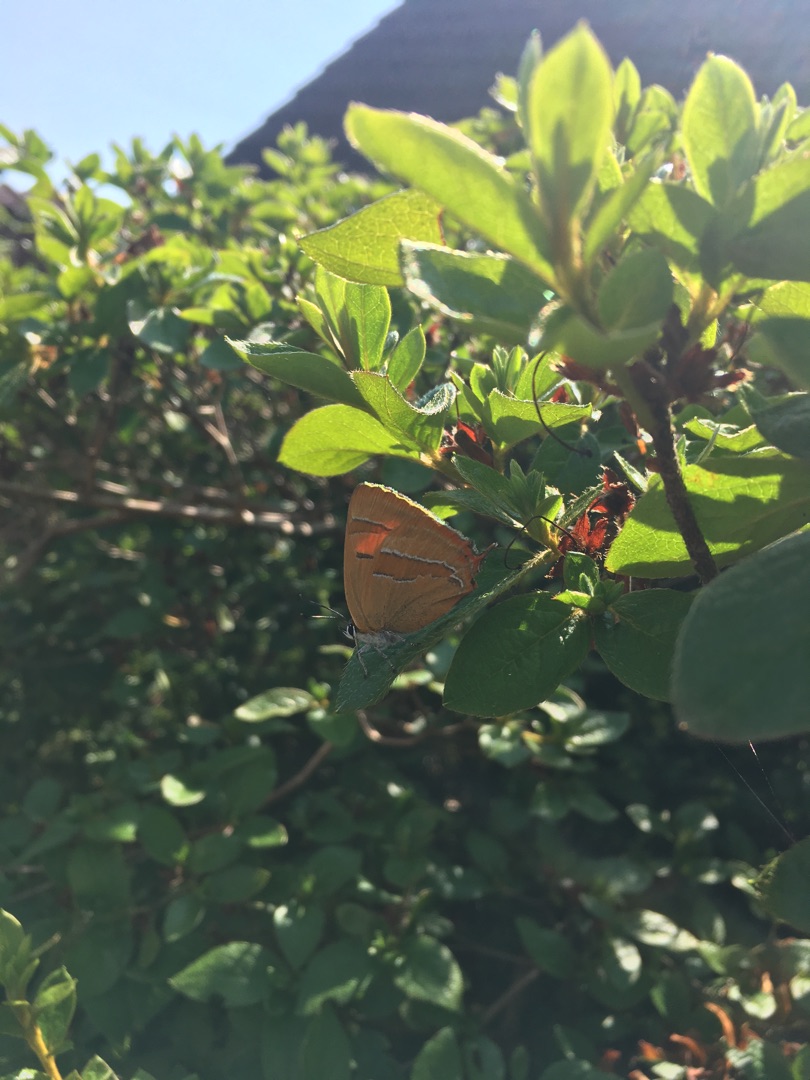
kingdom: Animalia
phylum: Arthropoda
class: Insecta
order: Lepidoptera
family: Lycaenidae
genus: Thecla
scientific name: Thecla betulae
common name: Guldhale
